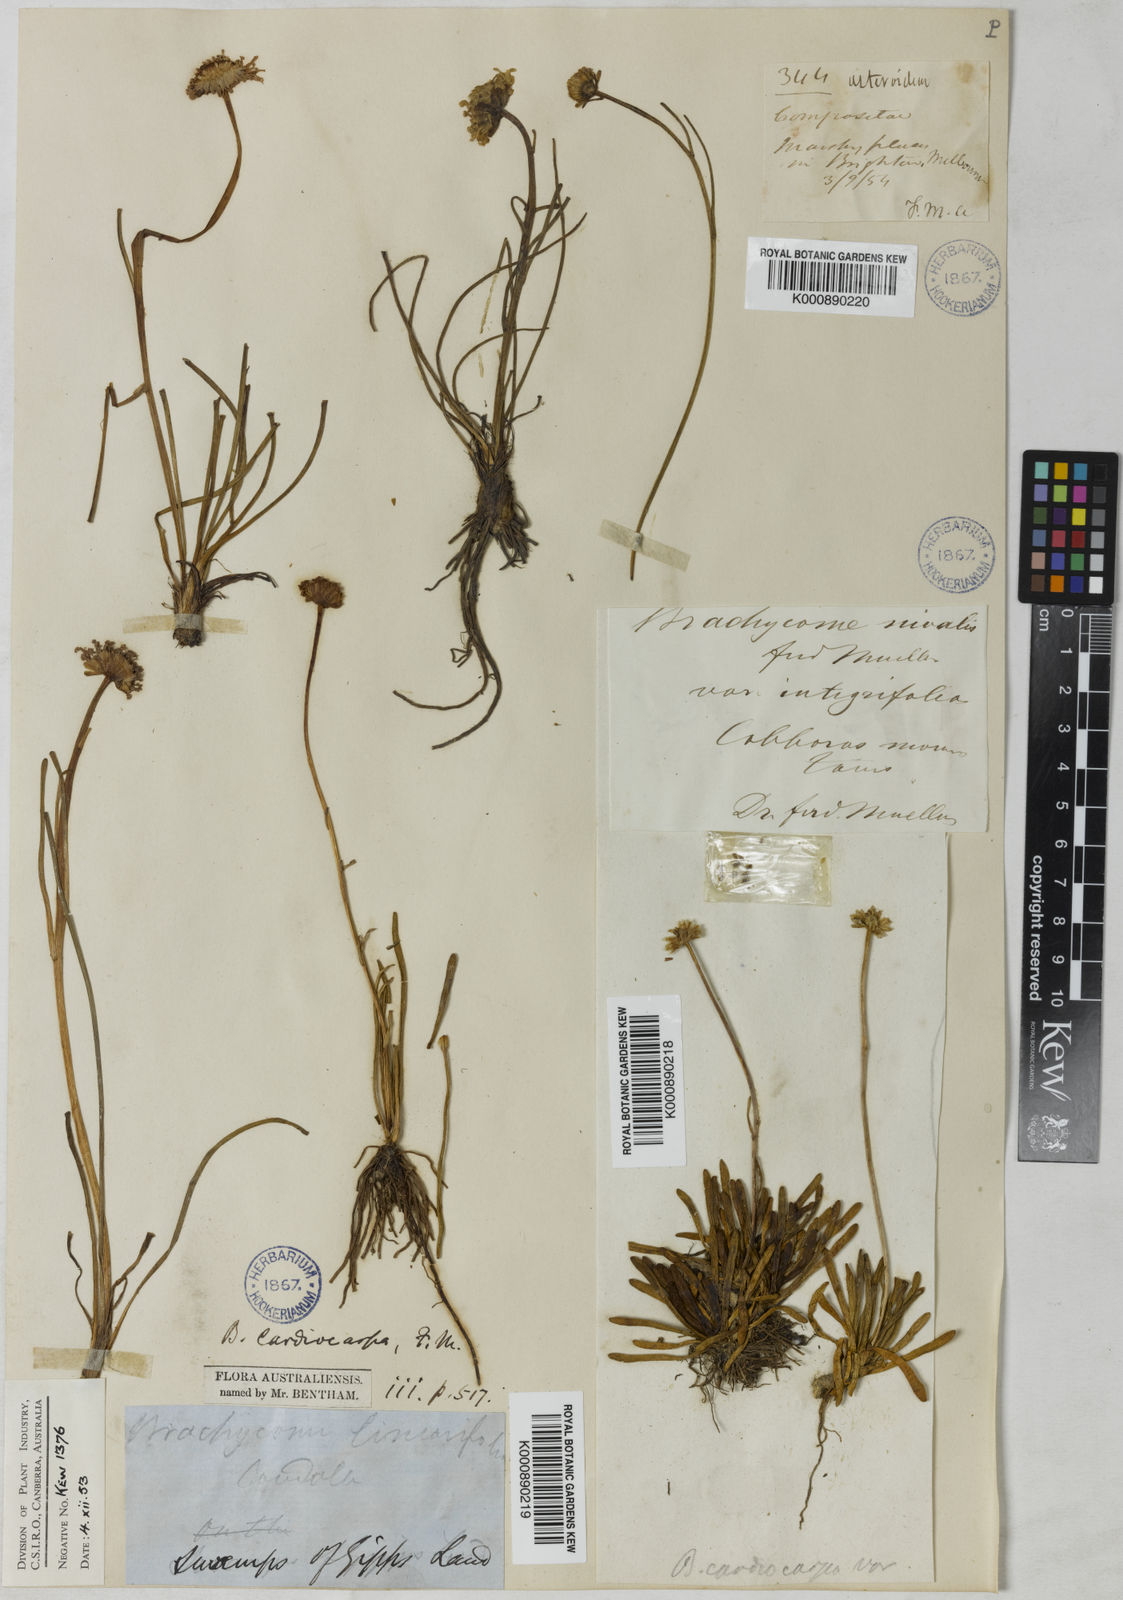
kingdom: Plantae
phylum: Tracheophyta
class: Magnoliopsida
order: Asterales
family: Asteraceae
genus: Allittia
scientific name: Allittia cardiocarpa
